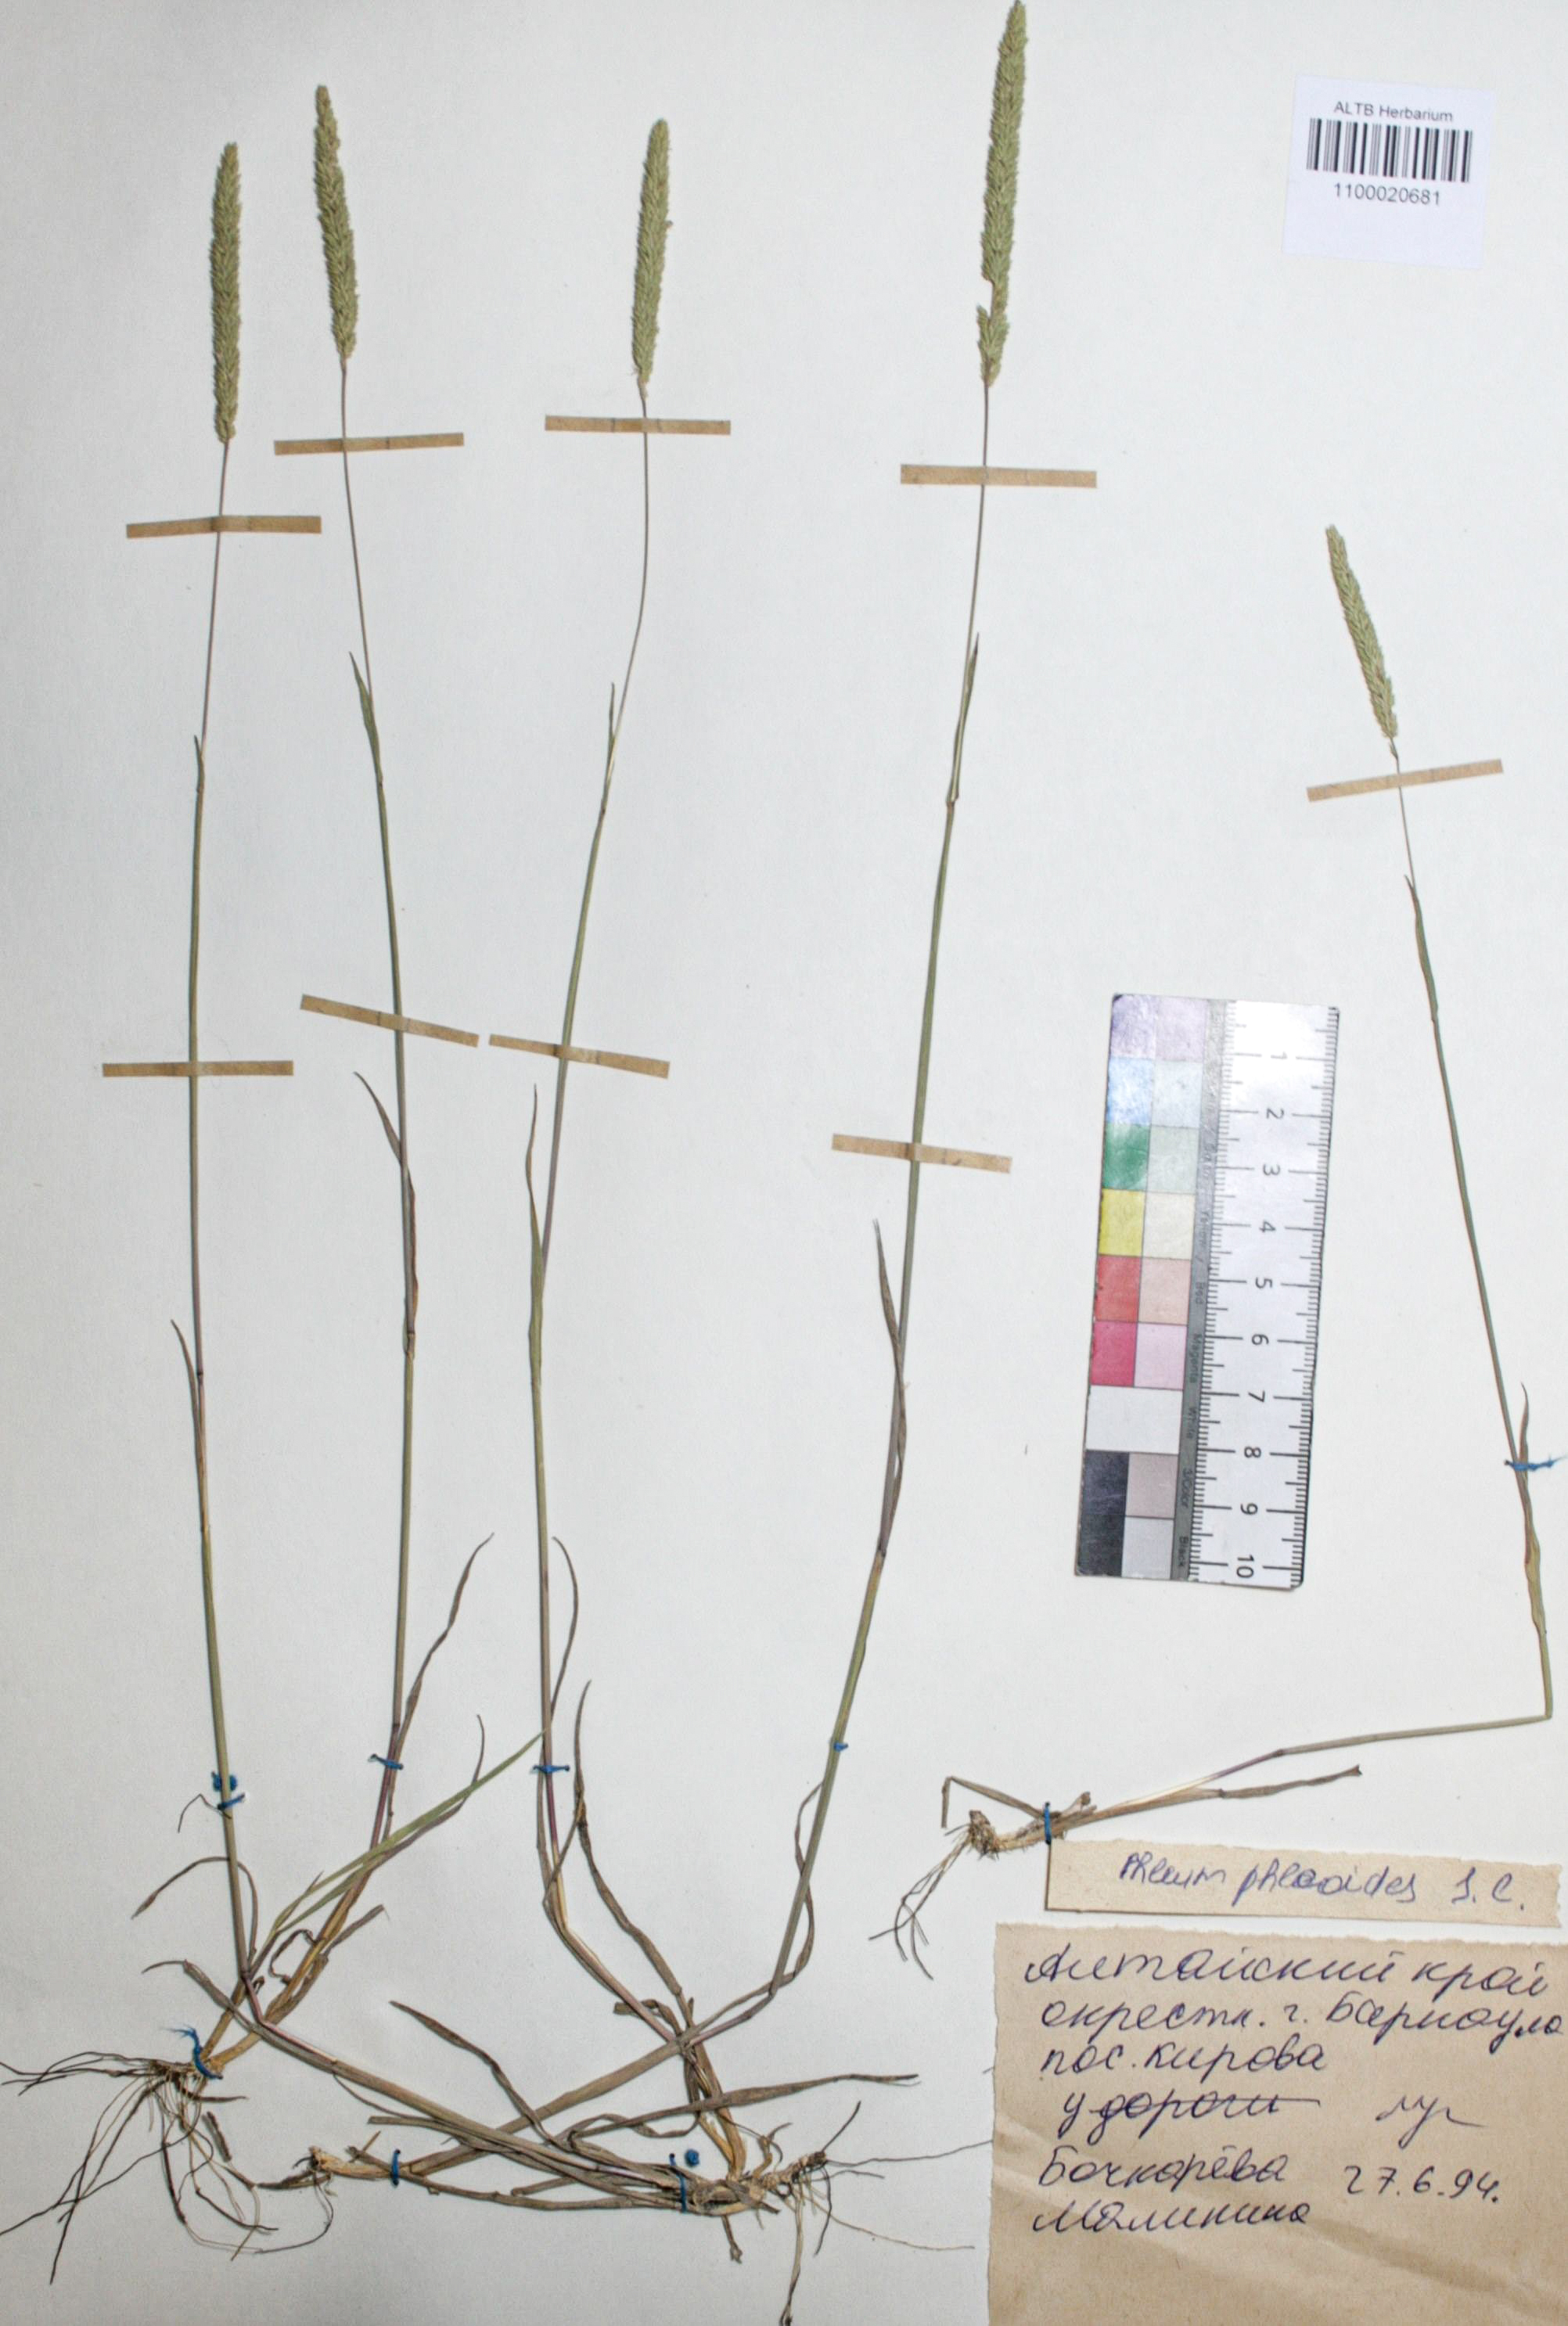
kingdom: Plantae
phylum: Tracheophyta
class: Liliopsida
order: Poales
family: Poaceae
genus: Phleum
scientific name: Phleum phleoides
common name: Purple-stem cat's-tail
